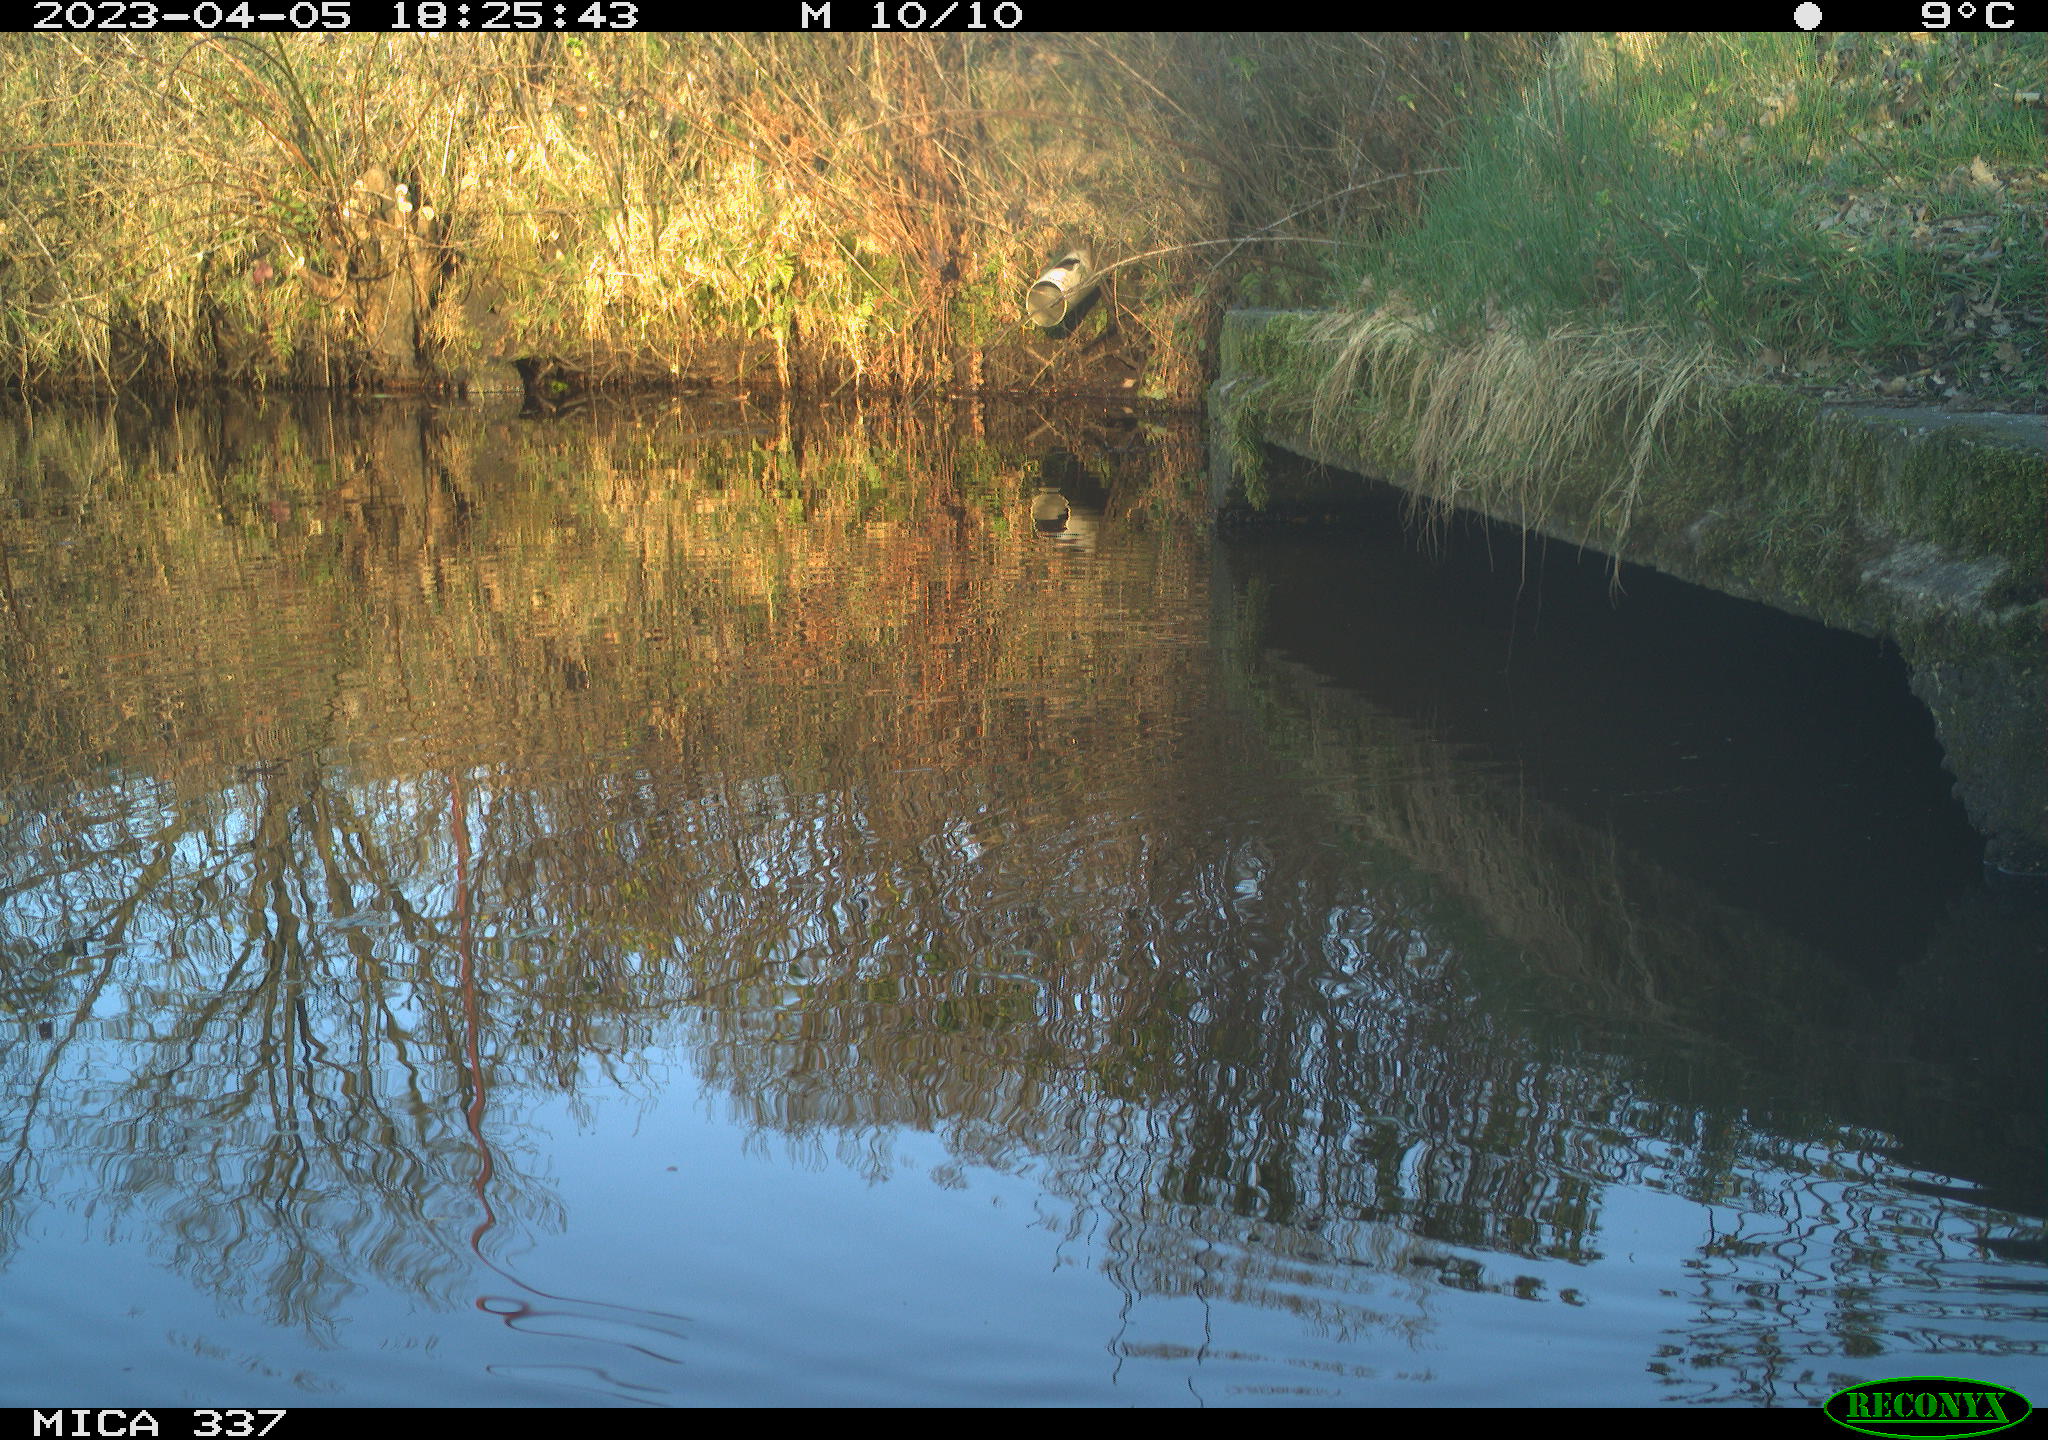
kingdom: Animalia
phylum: Chordata
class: Aves
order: Gruiformes
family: Rallidae
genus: Gallinula
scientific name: Gallinula chloropus
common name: Common moorhen
